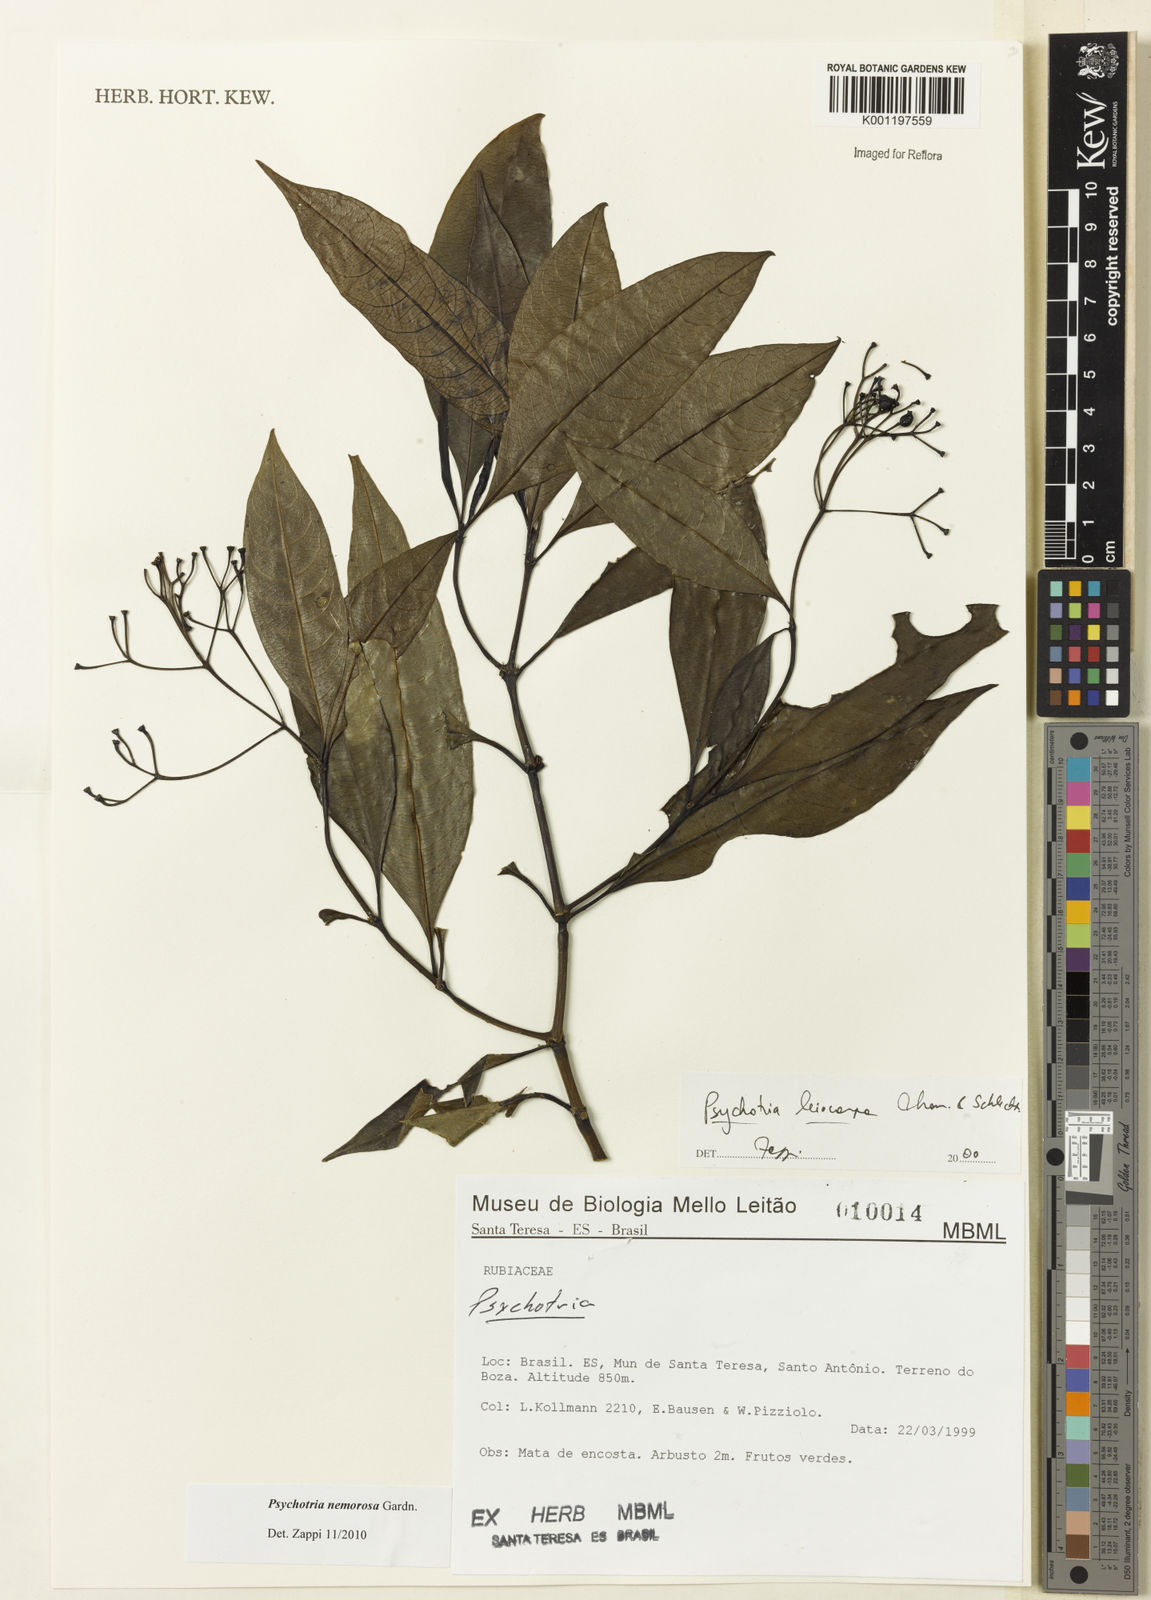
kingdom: Plantae
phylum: Tracheophyta
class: Magnoliopsida
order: Gentianales
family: Rubiaceae
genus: Psychotria
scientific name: Psychotria nemorosa
